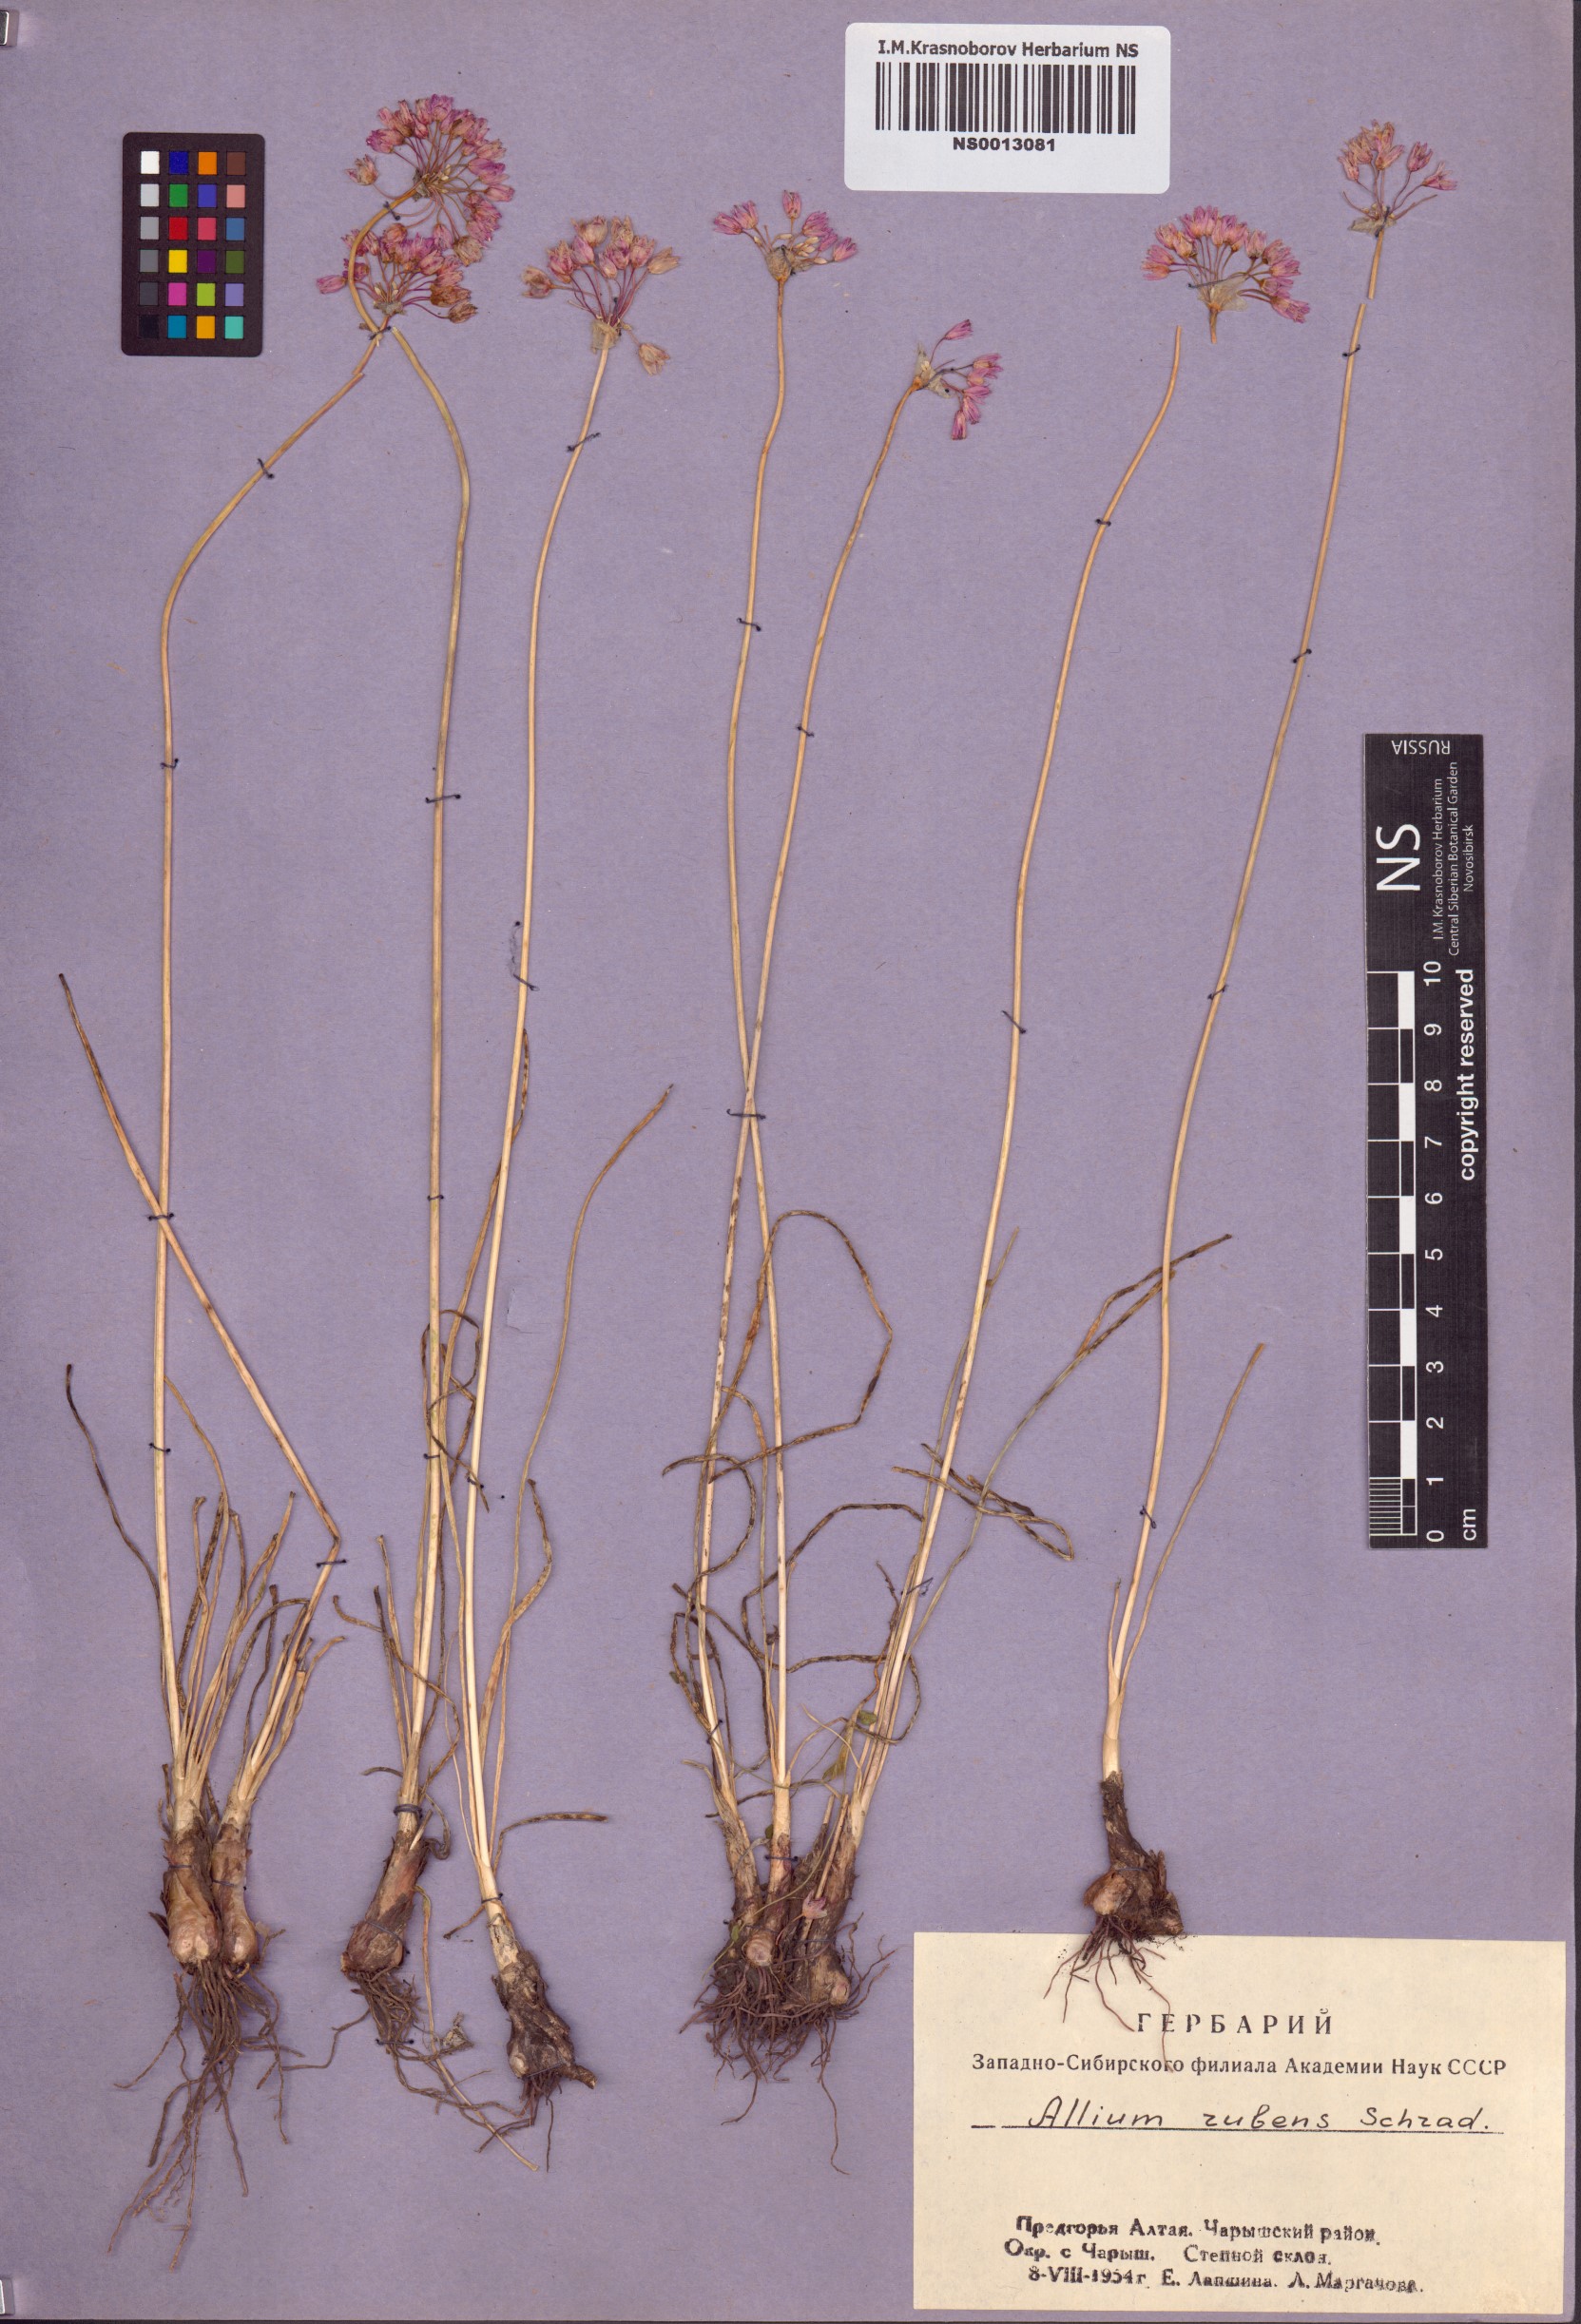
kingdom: Plantae
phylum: Tracheophyta
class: Liliopsida
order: Asparagales
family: Amaryllidaceae
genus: Allium
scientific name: Allium rubens
